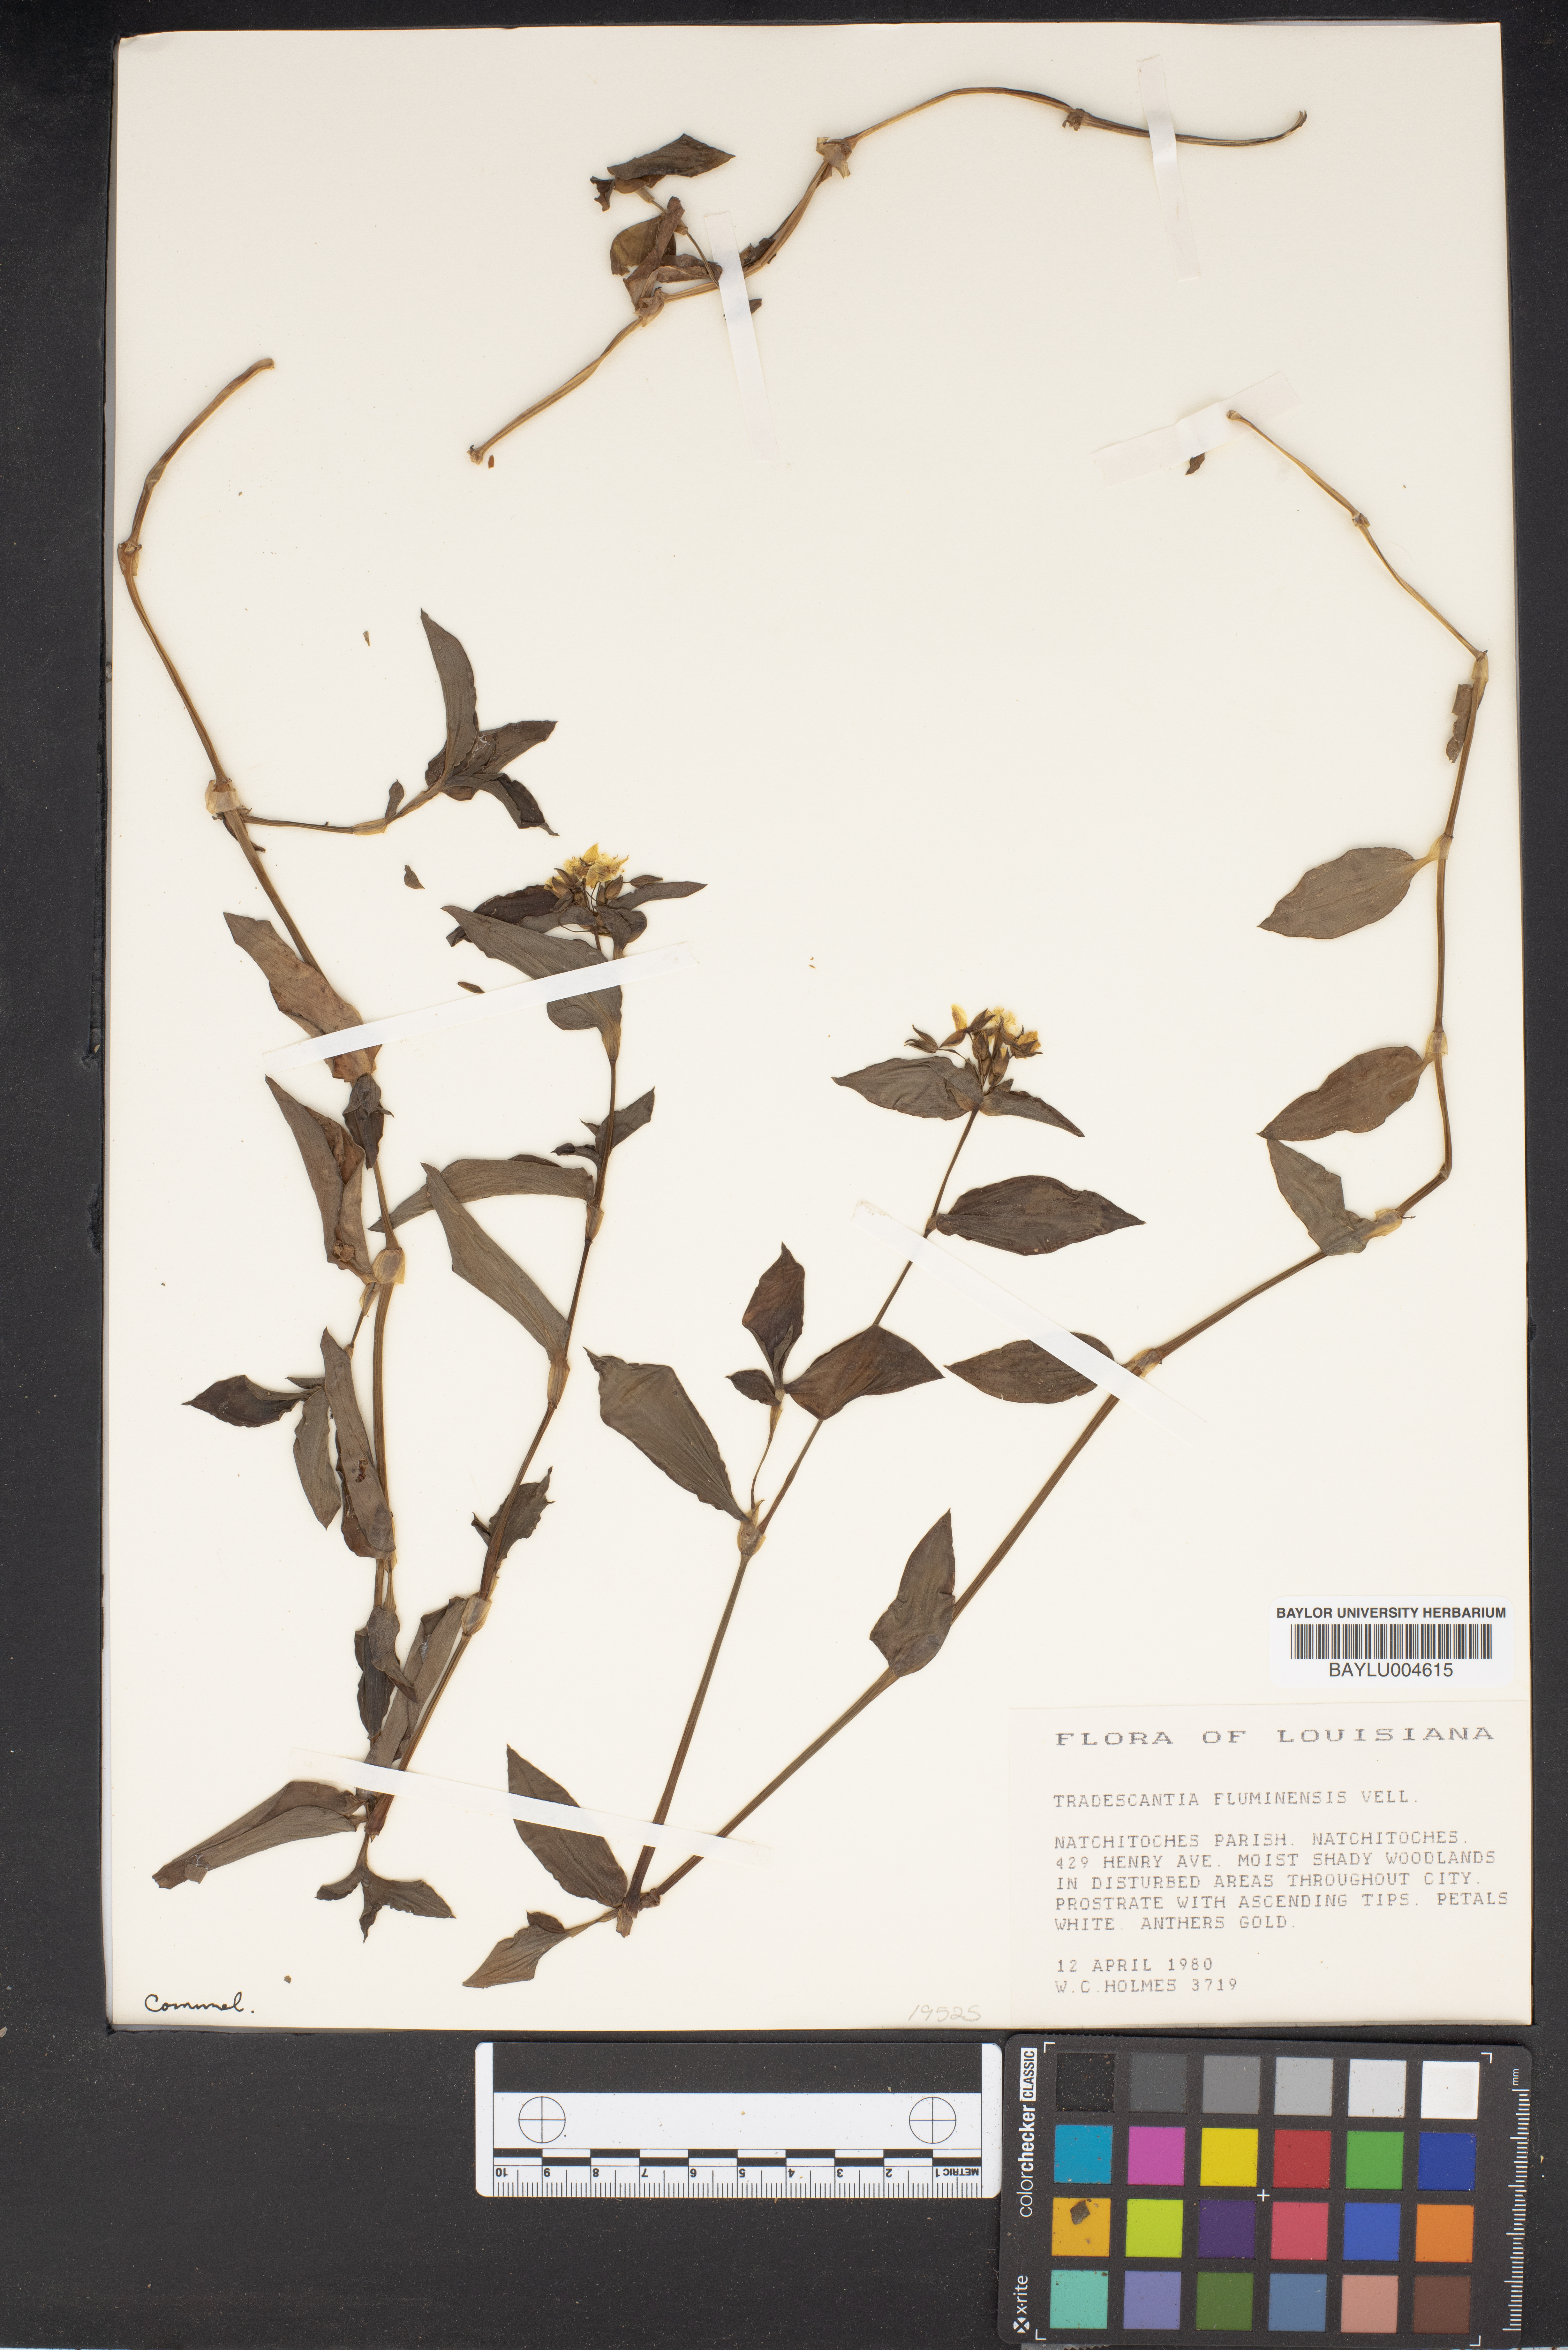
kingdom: Plantae
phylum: Tracheophyta
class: Liliopsida
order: Commelinales
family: Commelinaceae
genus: Tradescantia
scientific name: Tradescantia fluminensis
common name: Wandering-jew
